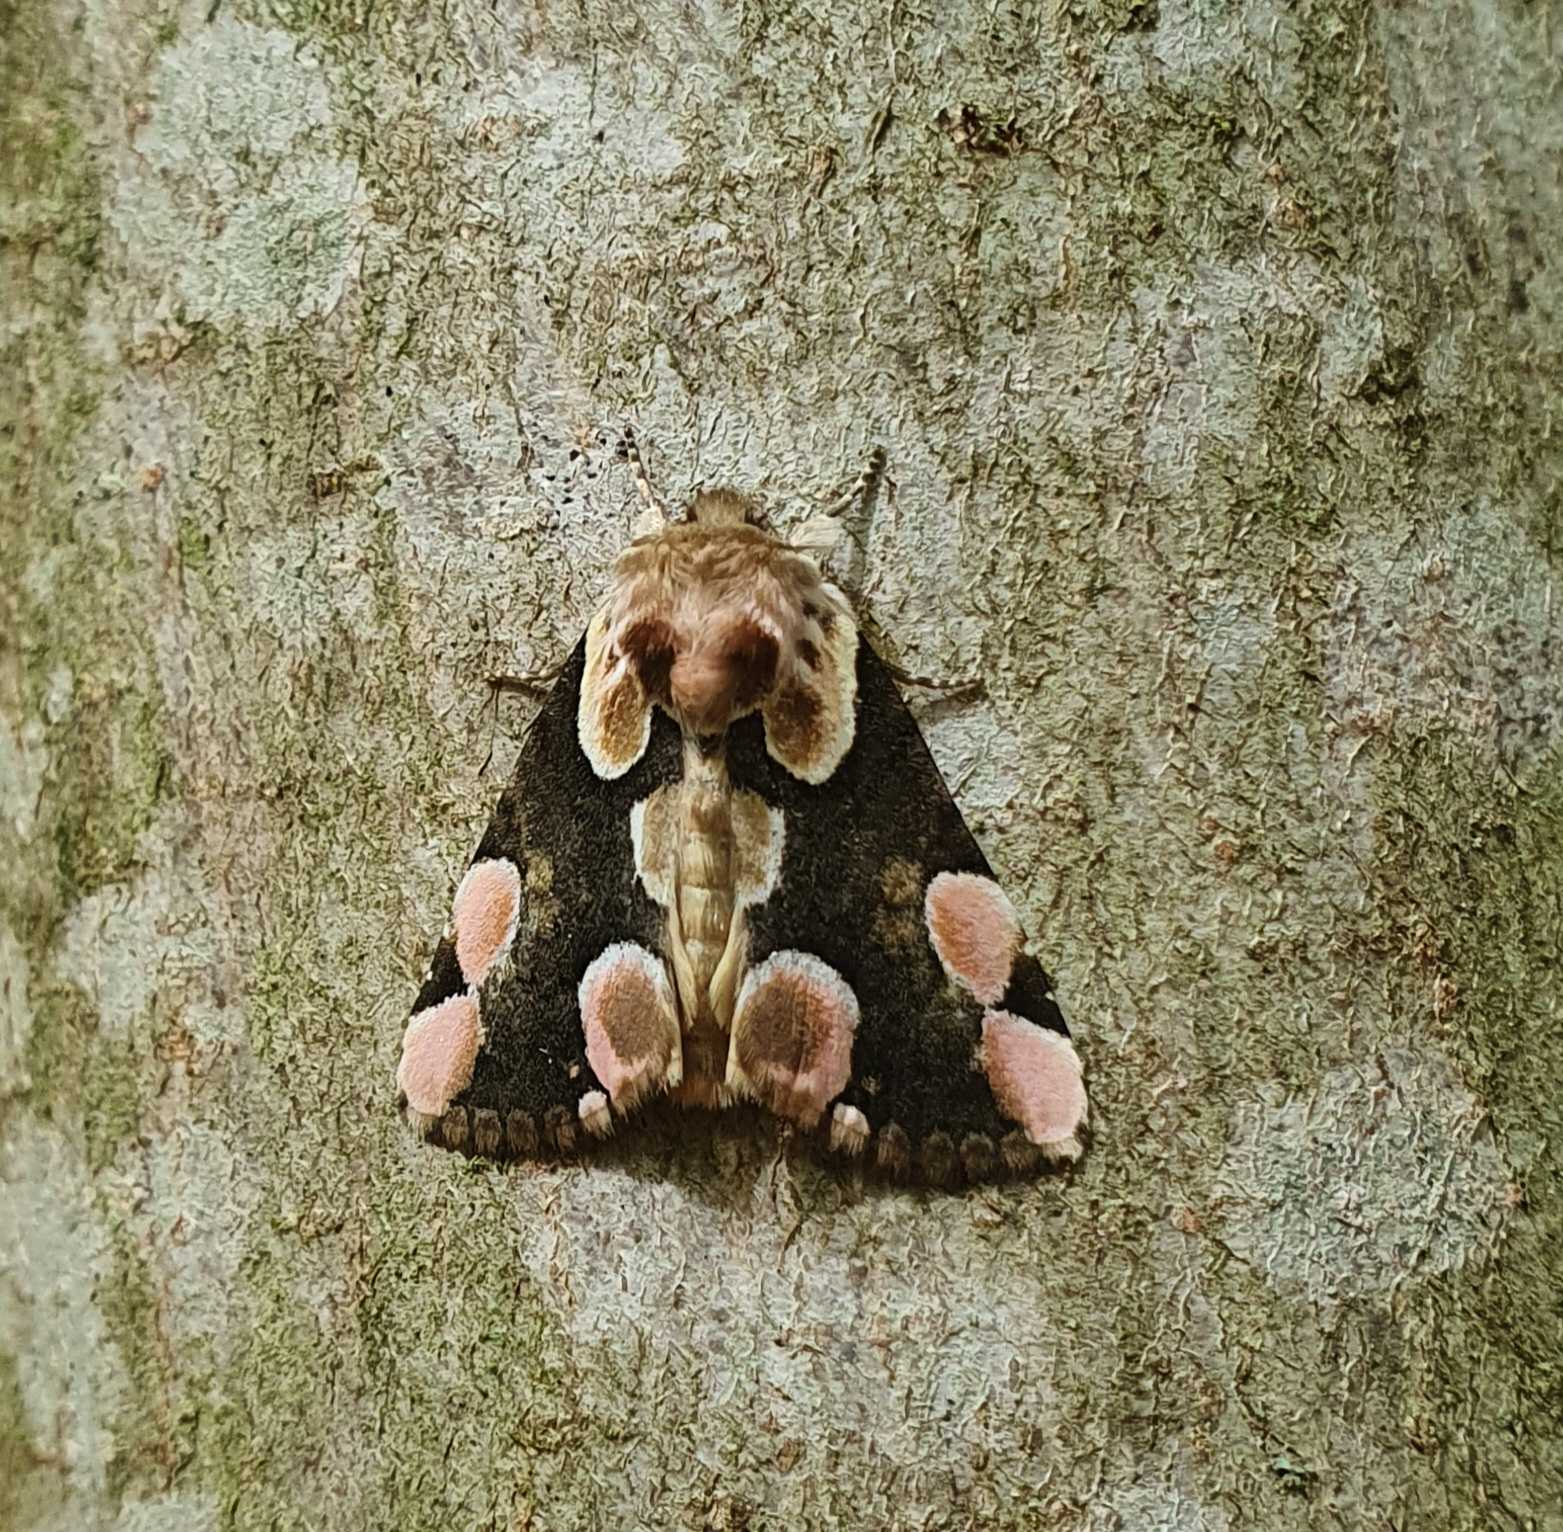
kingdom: Animalia
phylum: Arthropoda
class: Insecta
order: Lepidoptera
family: Drepanidae
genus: Thyatira
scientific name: Thyatira batis
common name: Rosenplet
